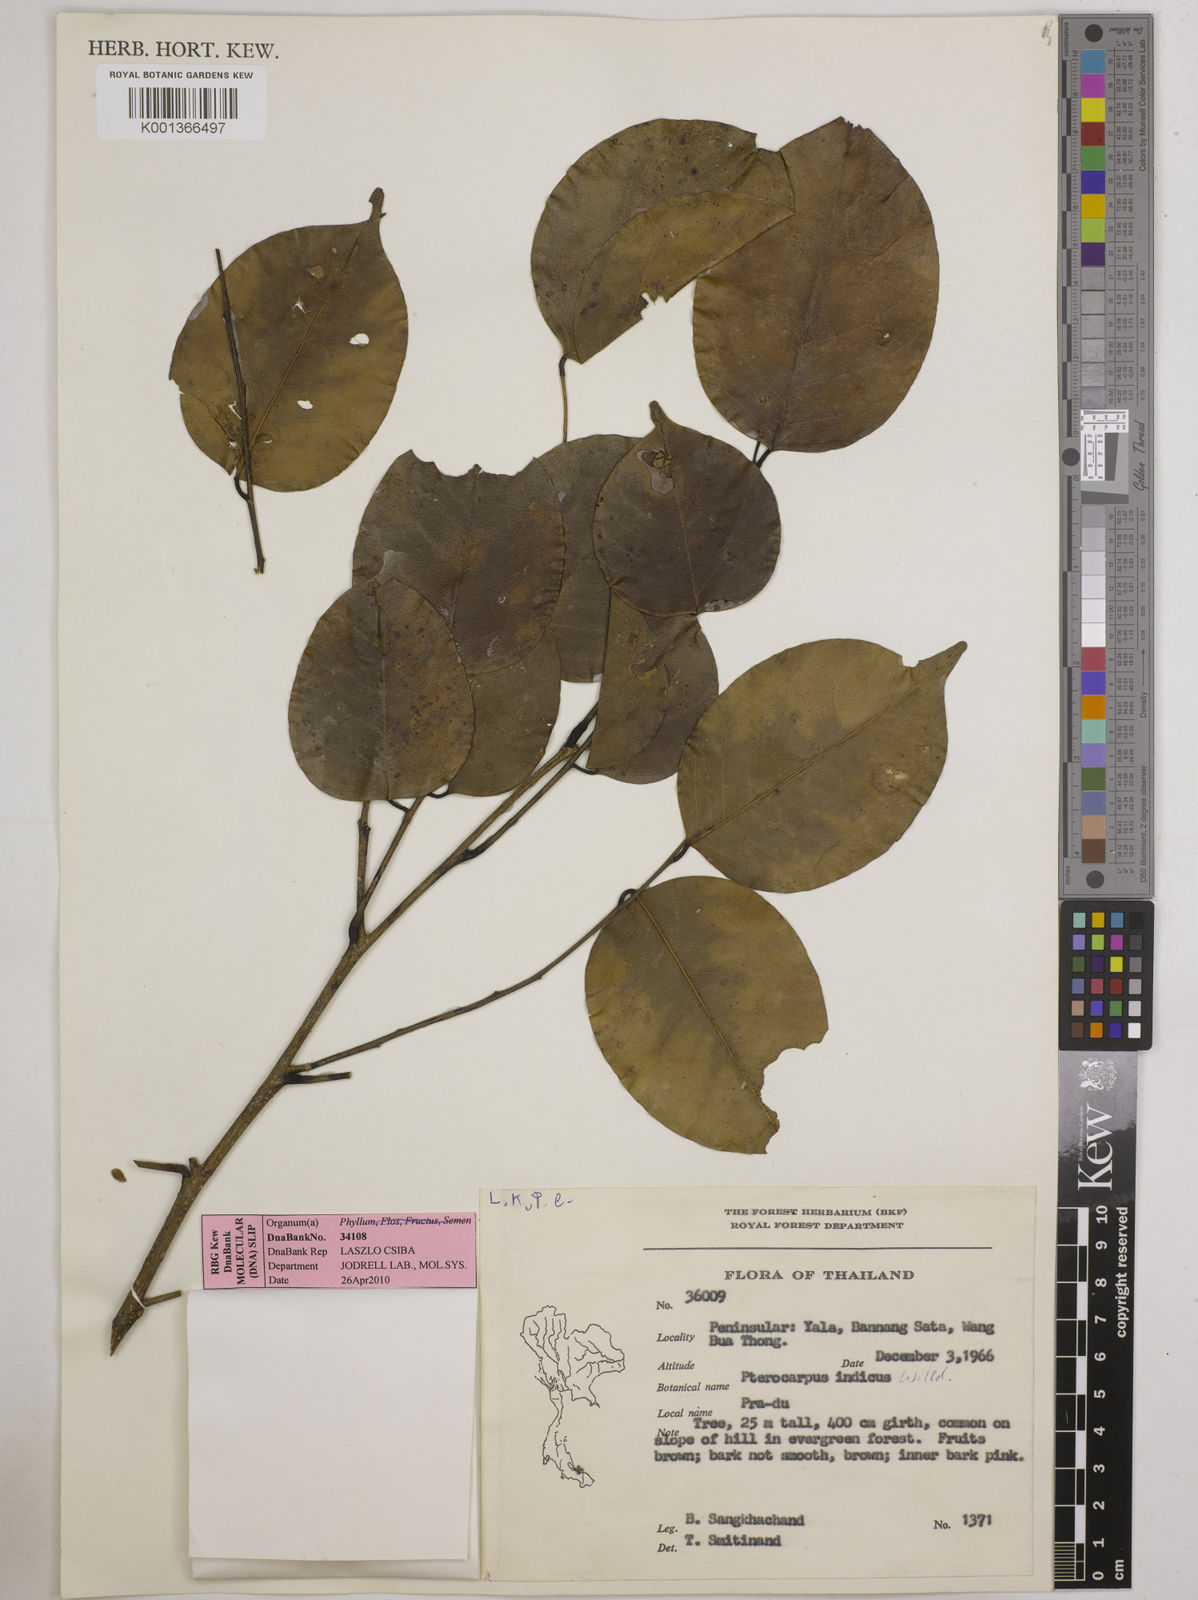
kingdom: Plantae
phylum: Tracheophyta
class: Magnoliopsida
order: Fabales
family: Fabaceae
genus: Pterocarpus
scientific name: Pterocarpus indicus
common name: Burmese rosewood
